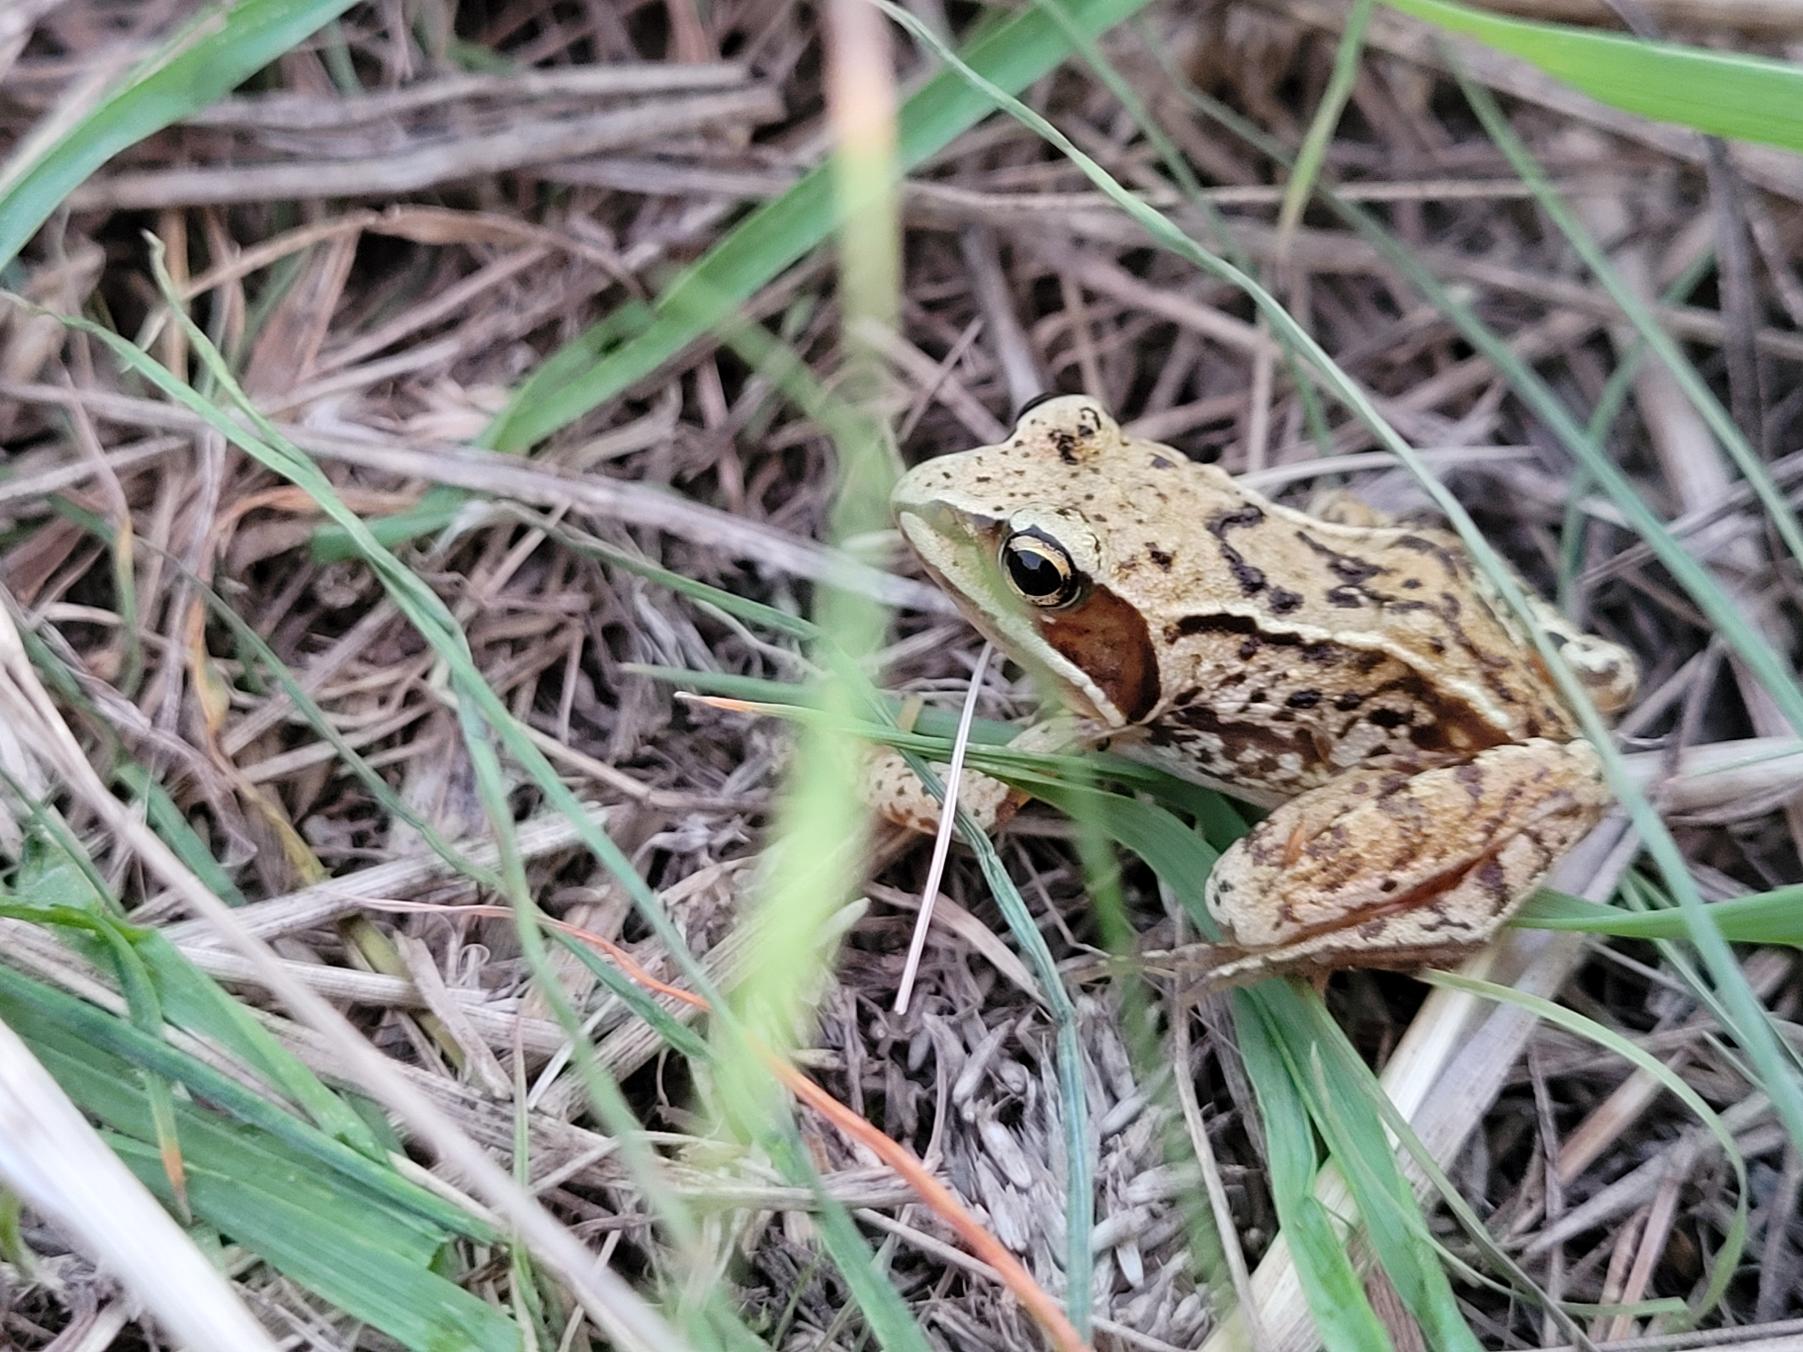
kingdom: Animalia
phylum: Chordata
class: Amphibia
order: Anura
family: Ranidae
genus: Rana
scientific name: Rana arvalis
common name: Spidssnudet frø
